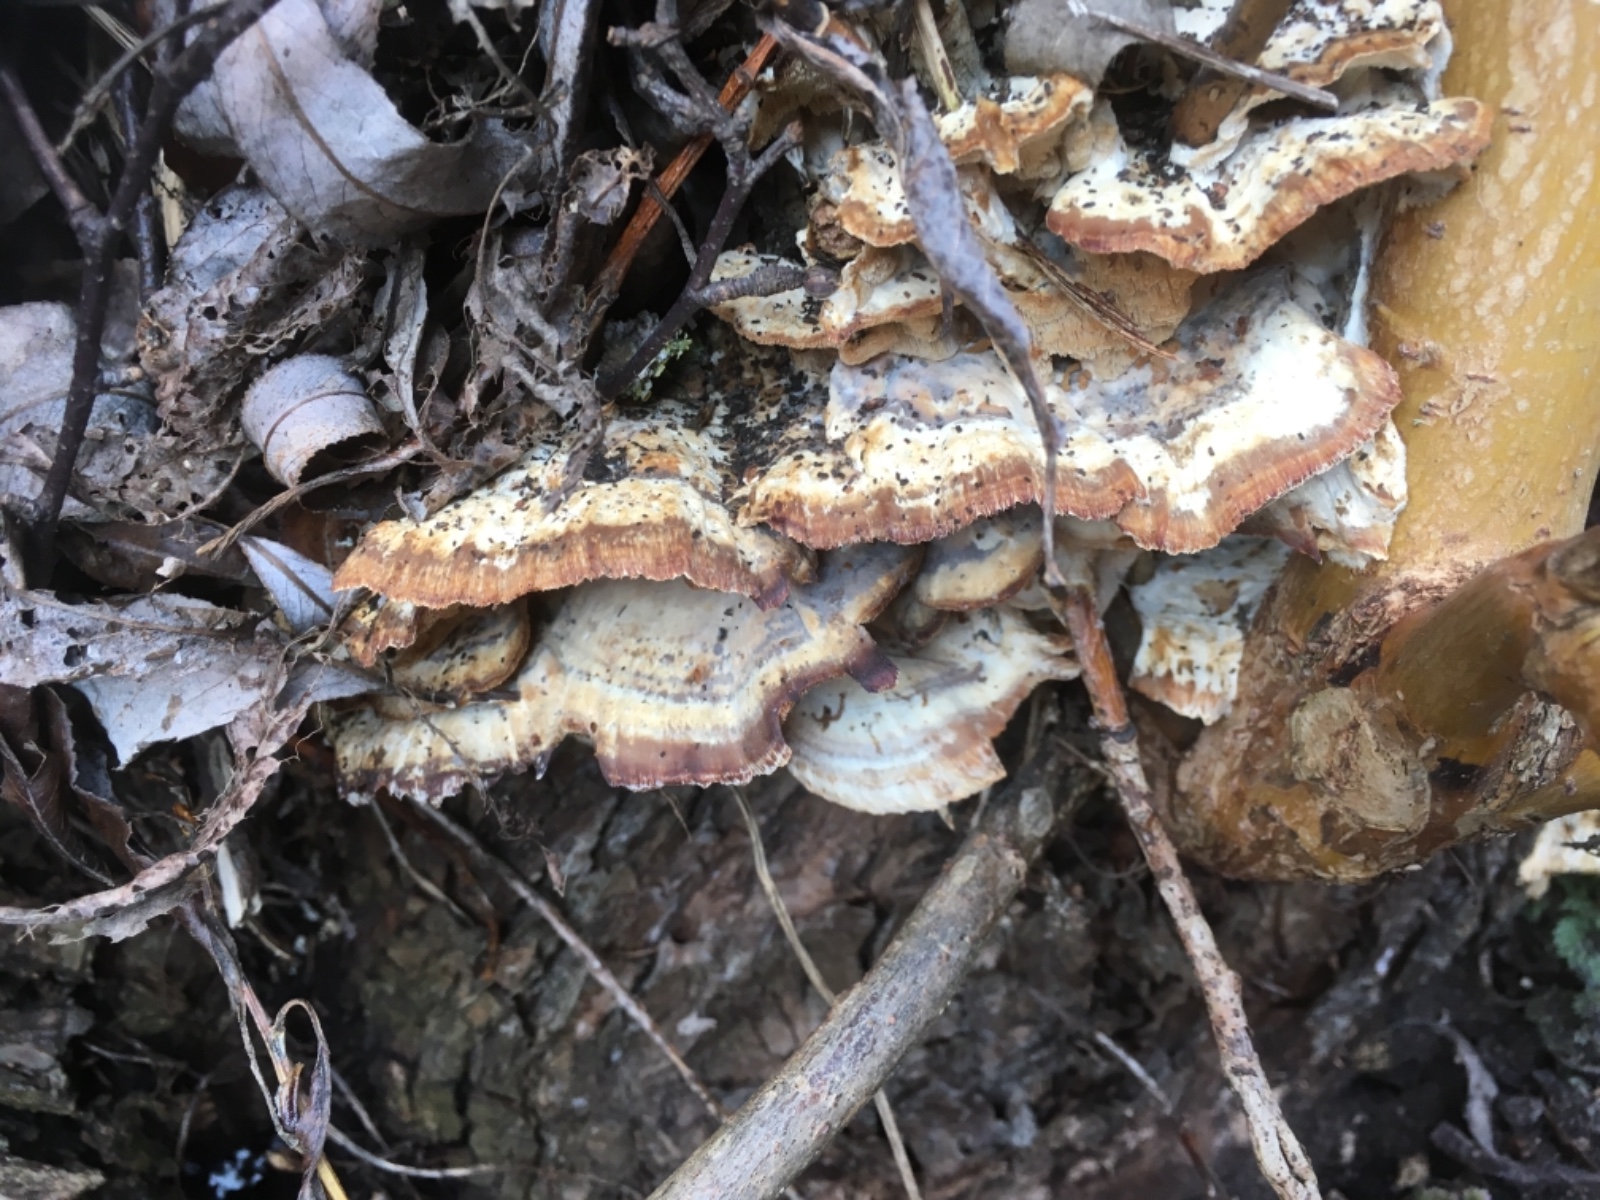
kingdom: Fungi
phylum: Basidiomycota
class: Agaricomycetes
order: Polyporales
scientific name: Polyporales
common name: poresvampordenen
